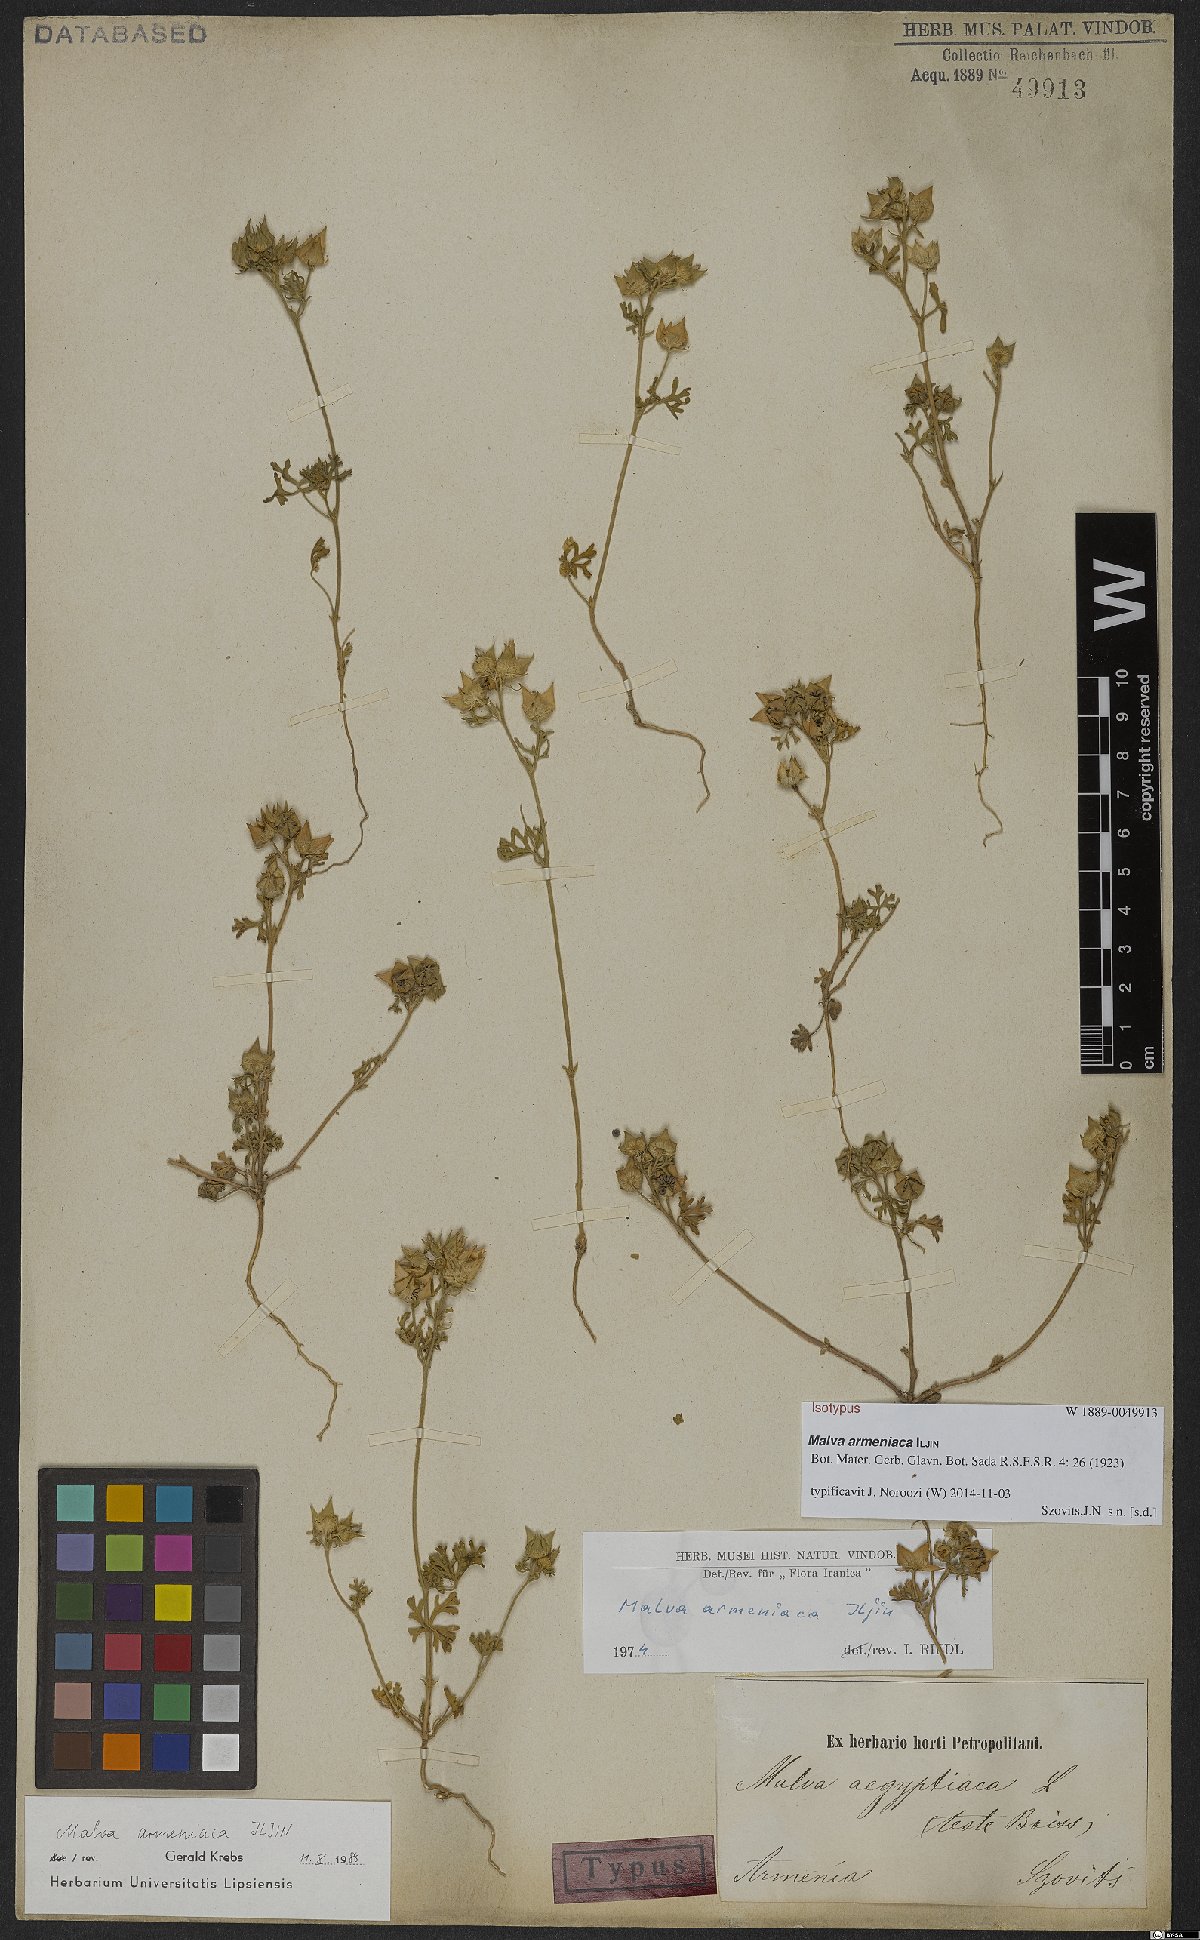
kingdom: Plantae
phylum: Tracheophyta
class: Magnoliopsida
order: Malvales
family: Malvaceae
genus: Malva
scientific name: Malva aegyptia
